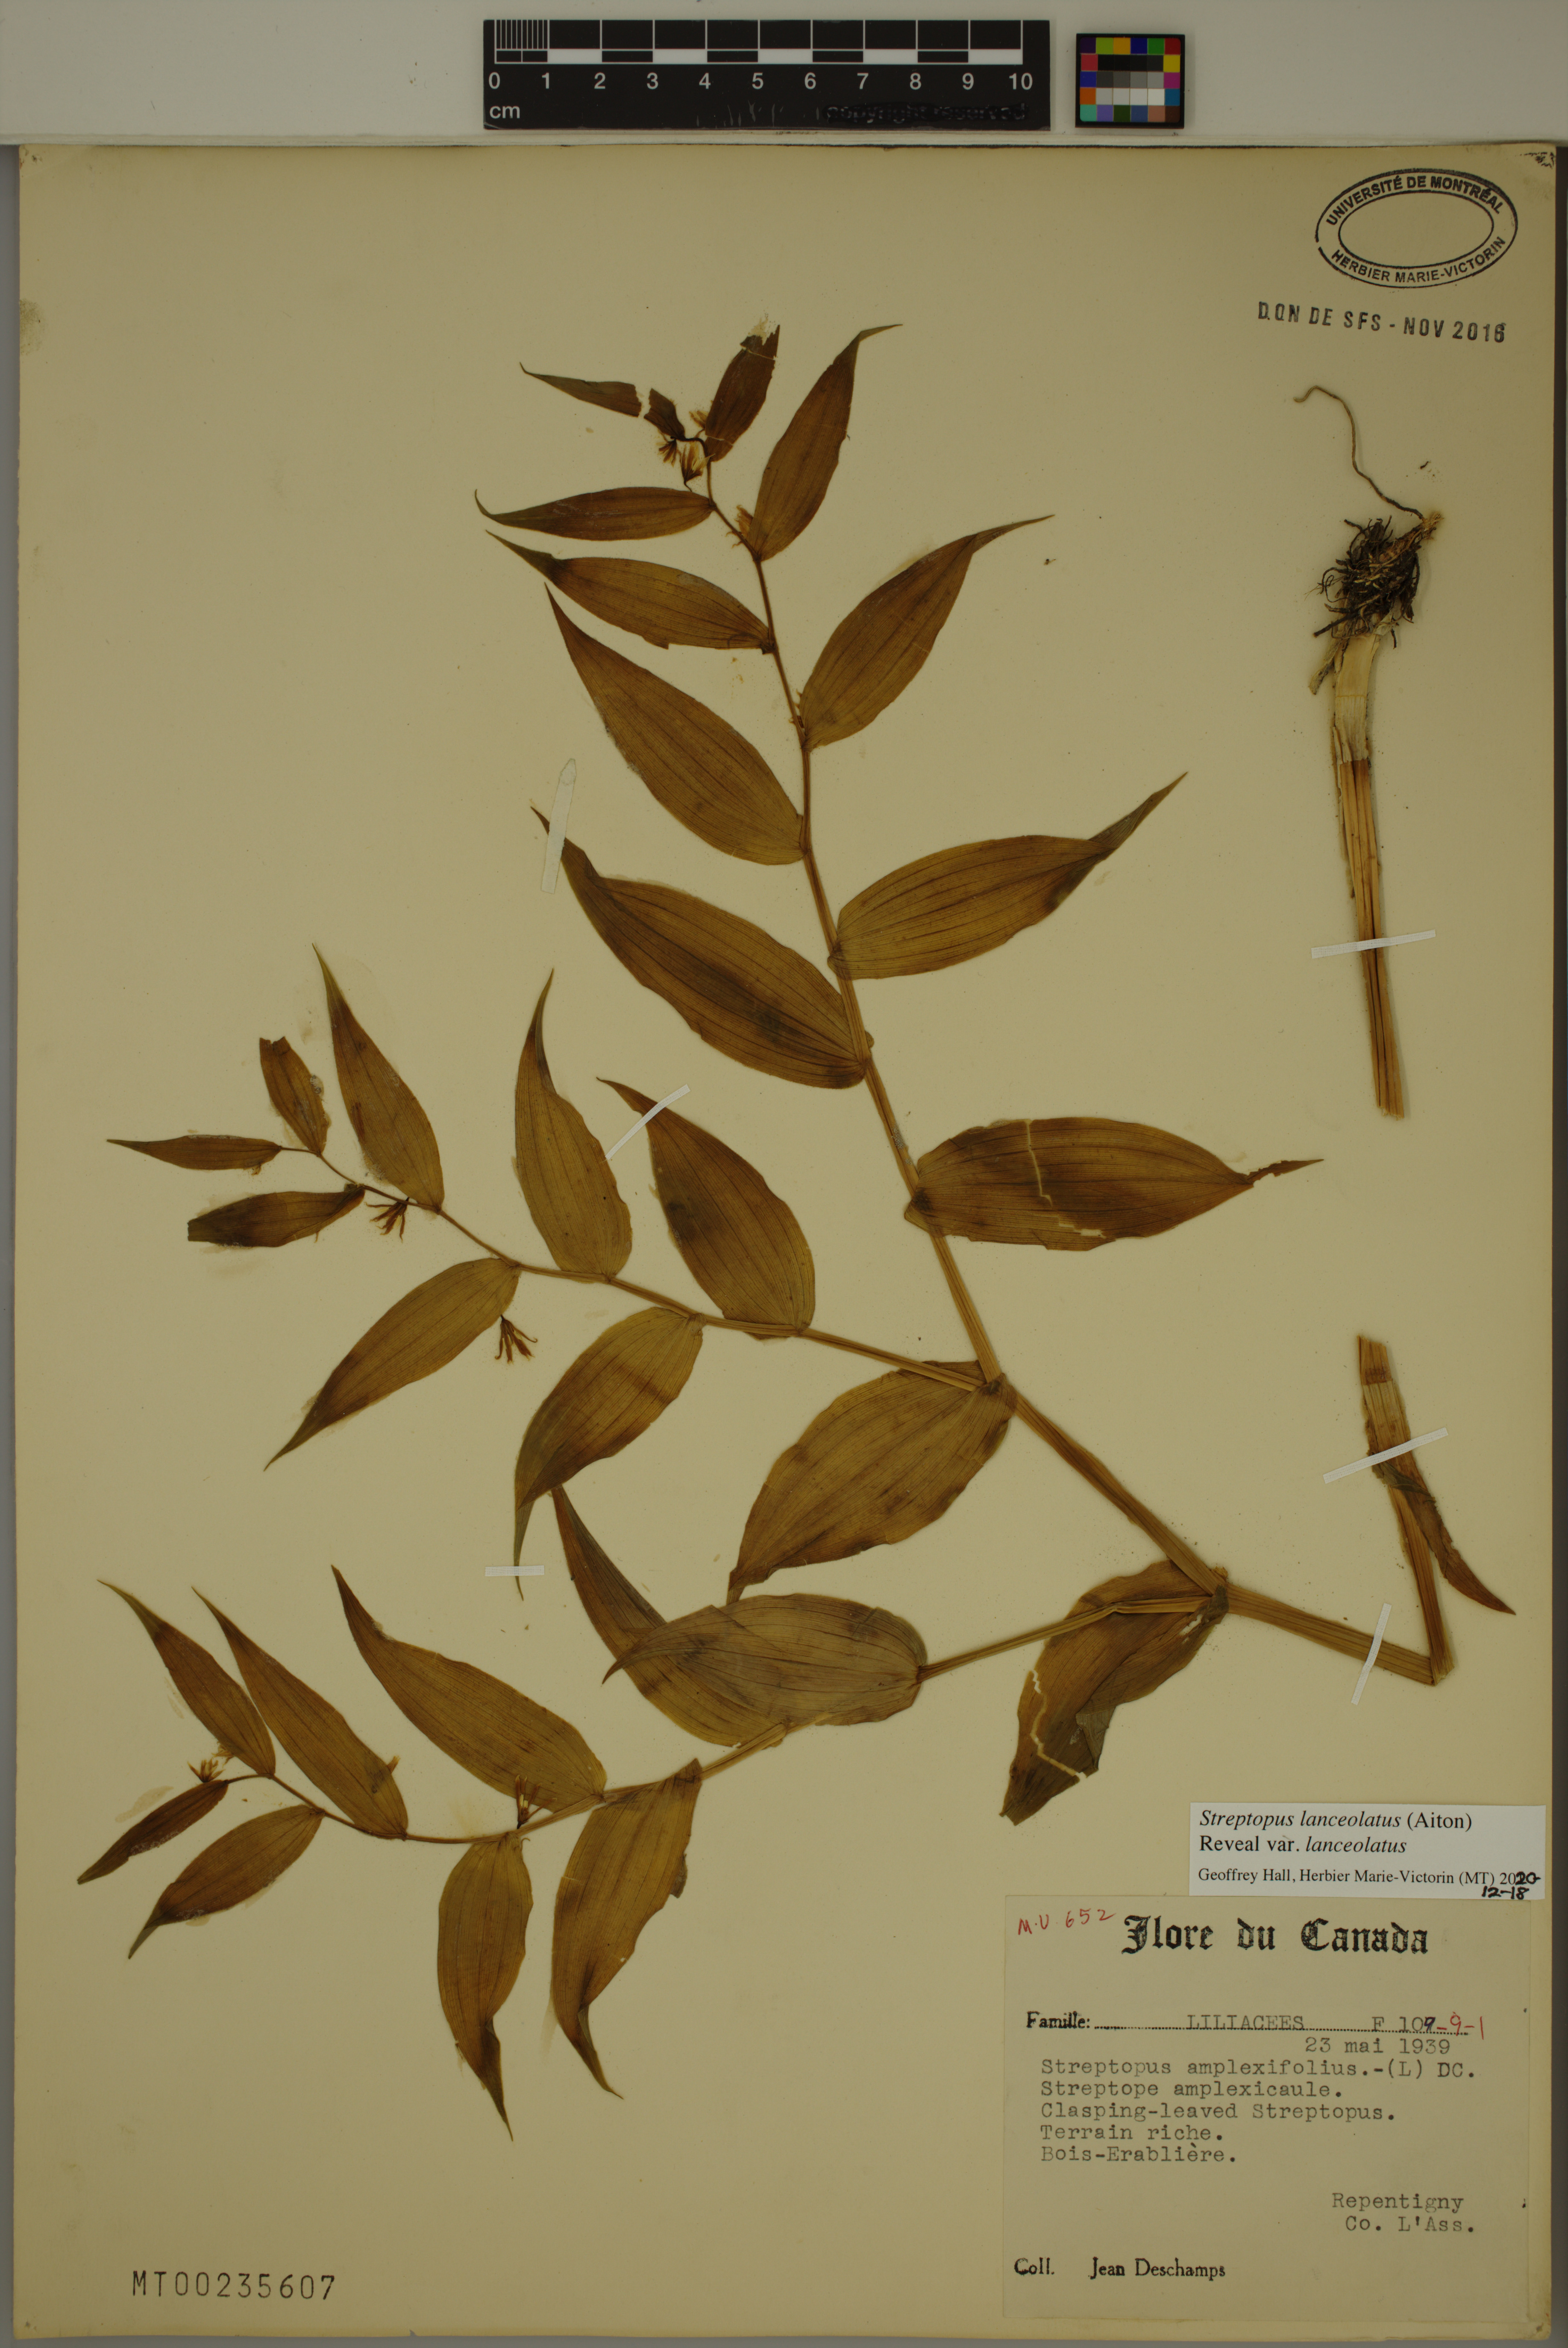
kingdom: Plantae
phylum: Tracheophyta
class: Liliopsida
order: Liliales
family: Liliaceae
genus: Streptopus
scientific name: Streptopus lanceolatus
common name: Rose mandarin
